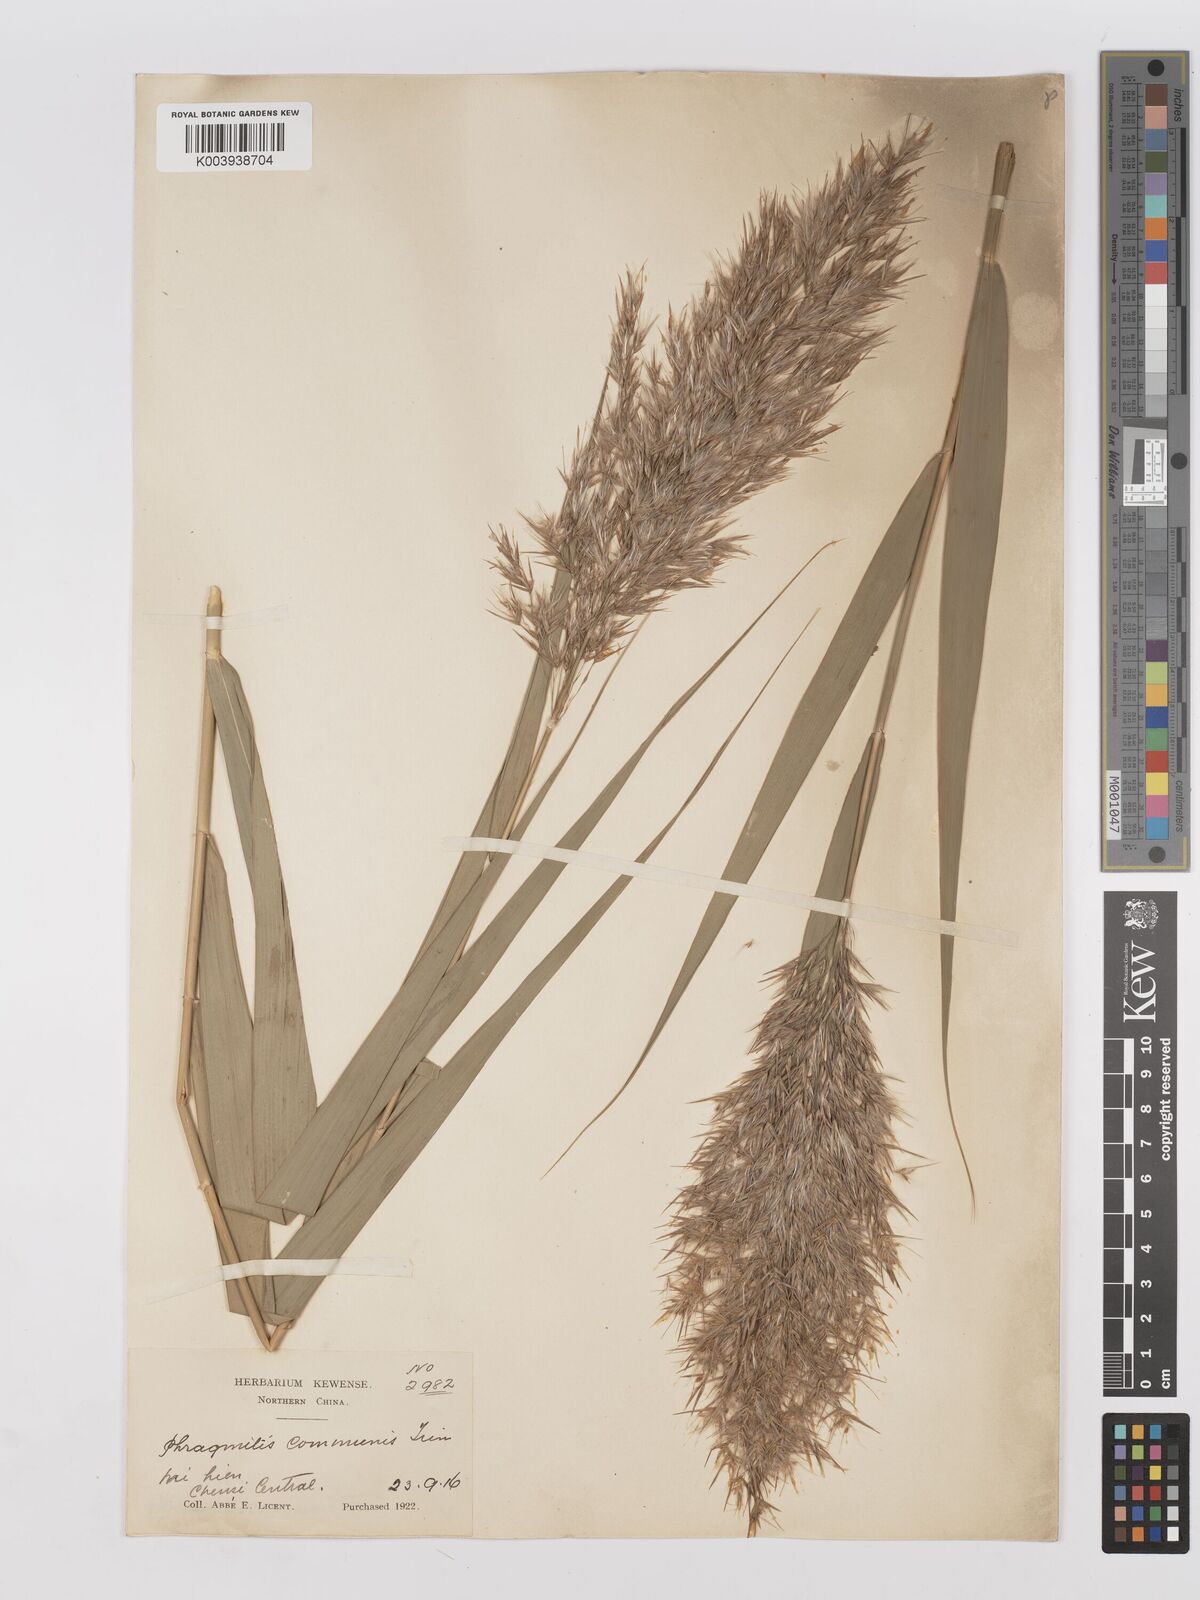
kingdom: Plantae
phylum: Tracheophyta
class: Liliopsida
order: Poales
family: Poaceae
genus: Phragmites
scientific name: Phragmites australis
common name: Common reed
